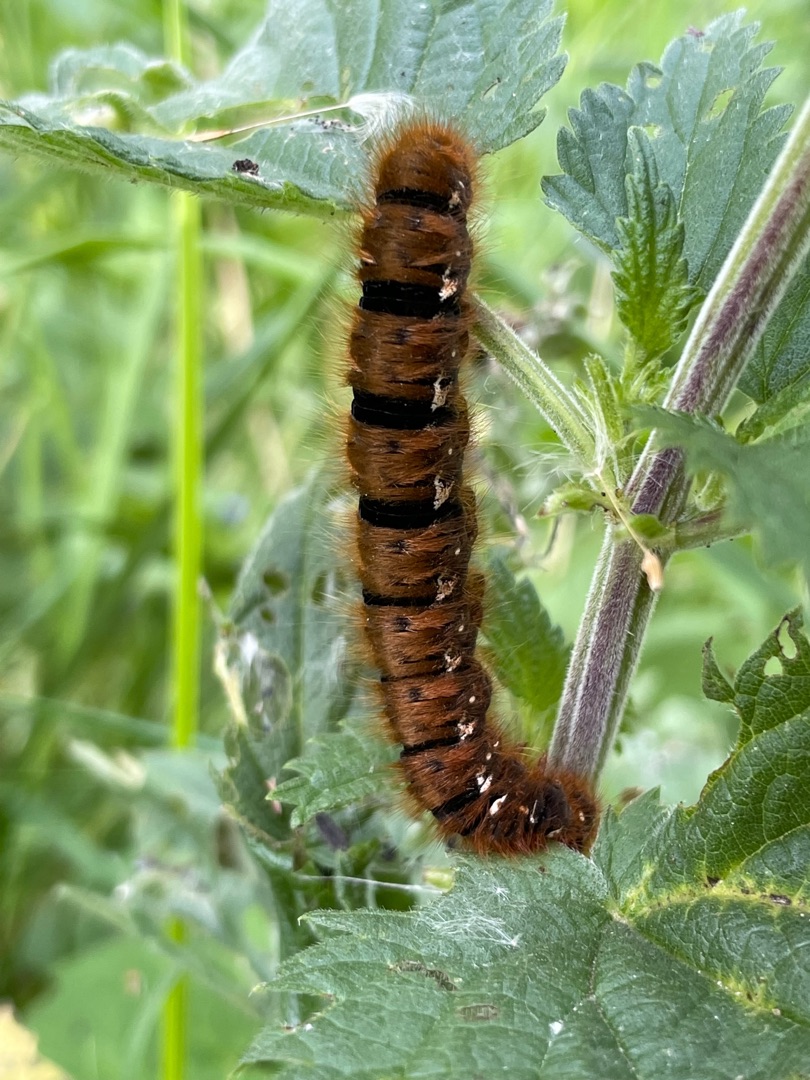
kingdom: Animalia
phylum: Arthropoda
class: Insecta
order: Lepidoptera
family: Lasiocampidae
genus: Lasiocampa
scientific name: Lasiocampa quercus
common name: Egespinder
